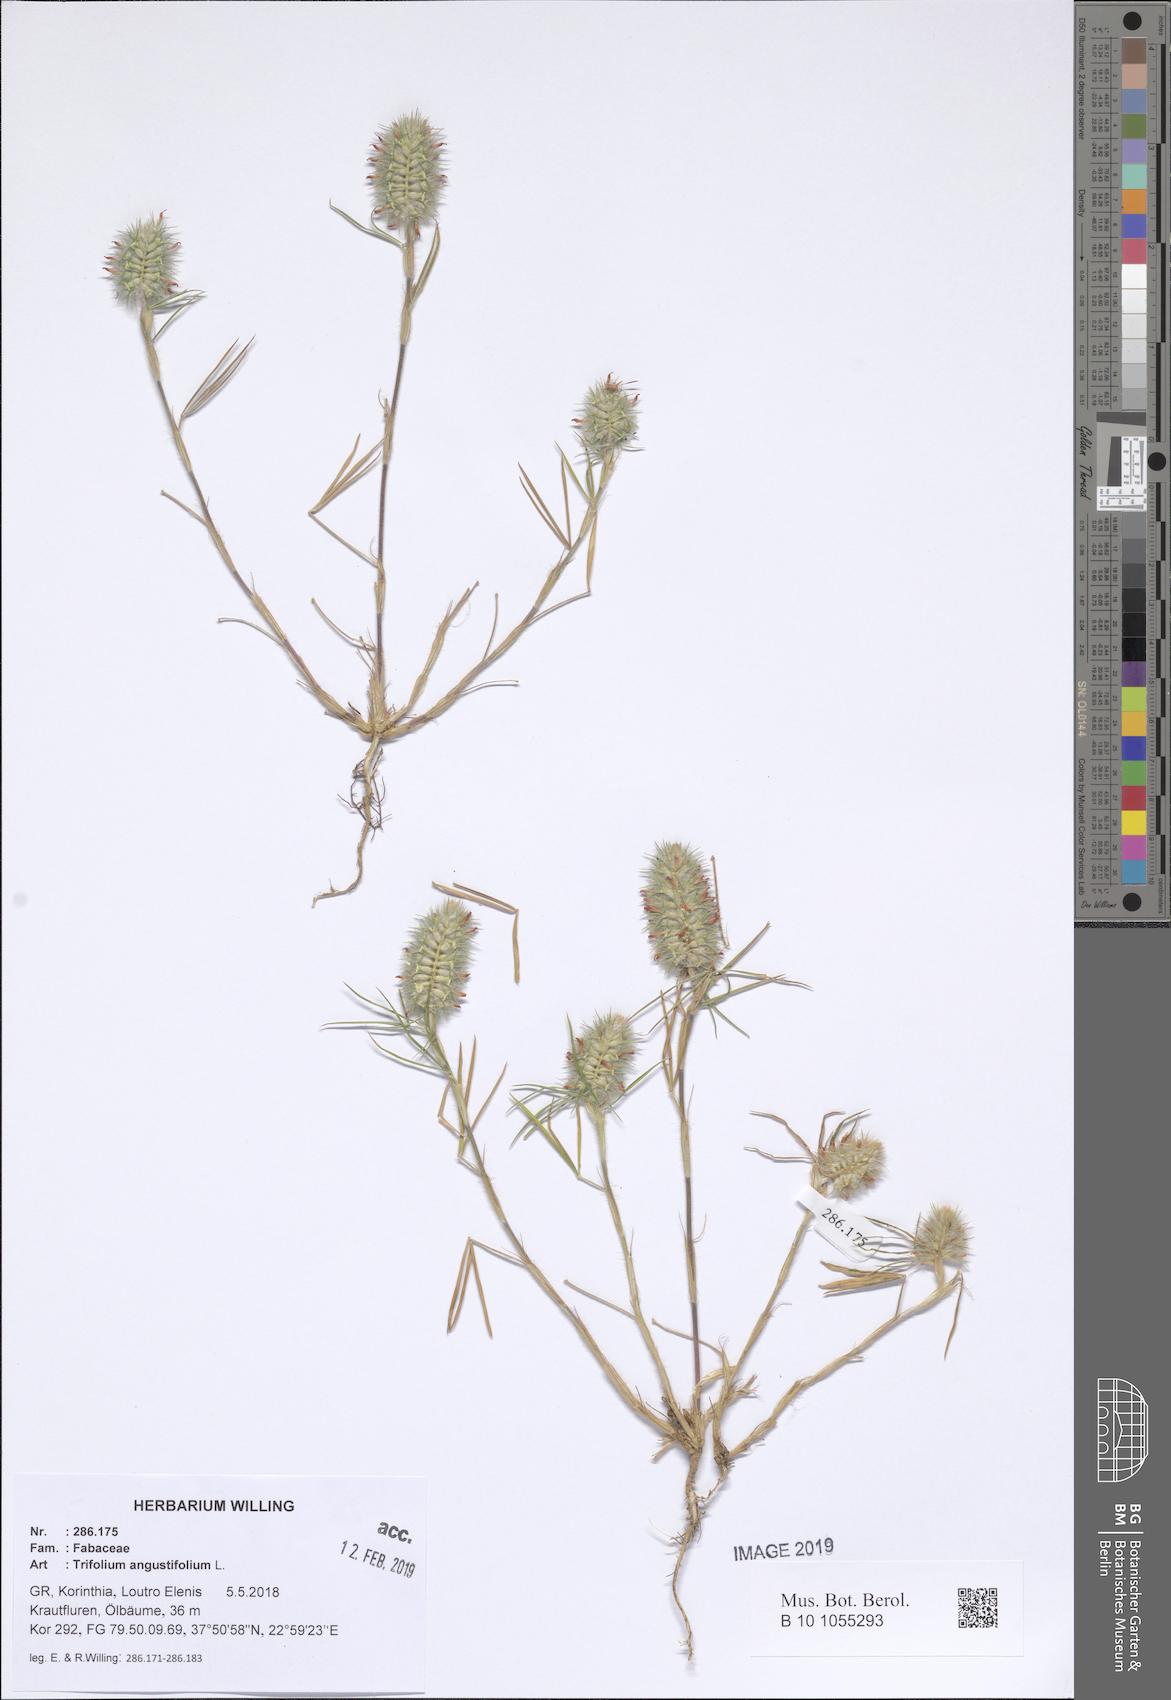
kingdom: Plantae
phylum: Tracheophyta
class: Magnoliopsida
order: Fabales
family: Fabaceae
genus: Trifolium
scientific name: Trifolium angustifolium
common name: Narrow clover
